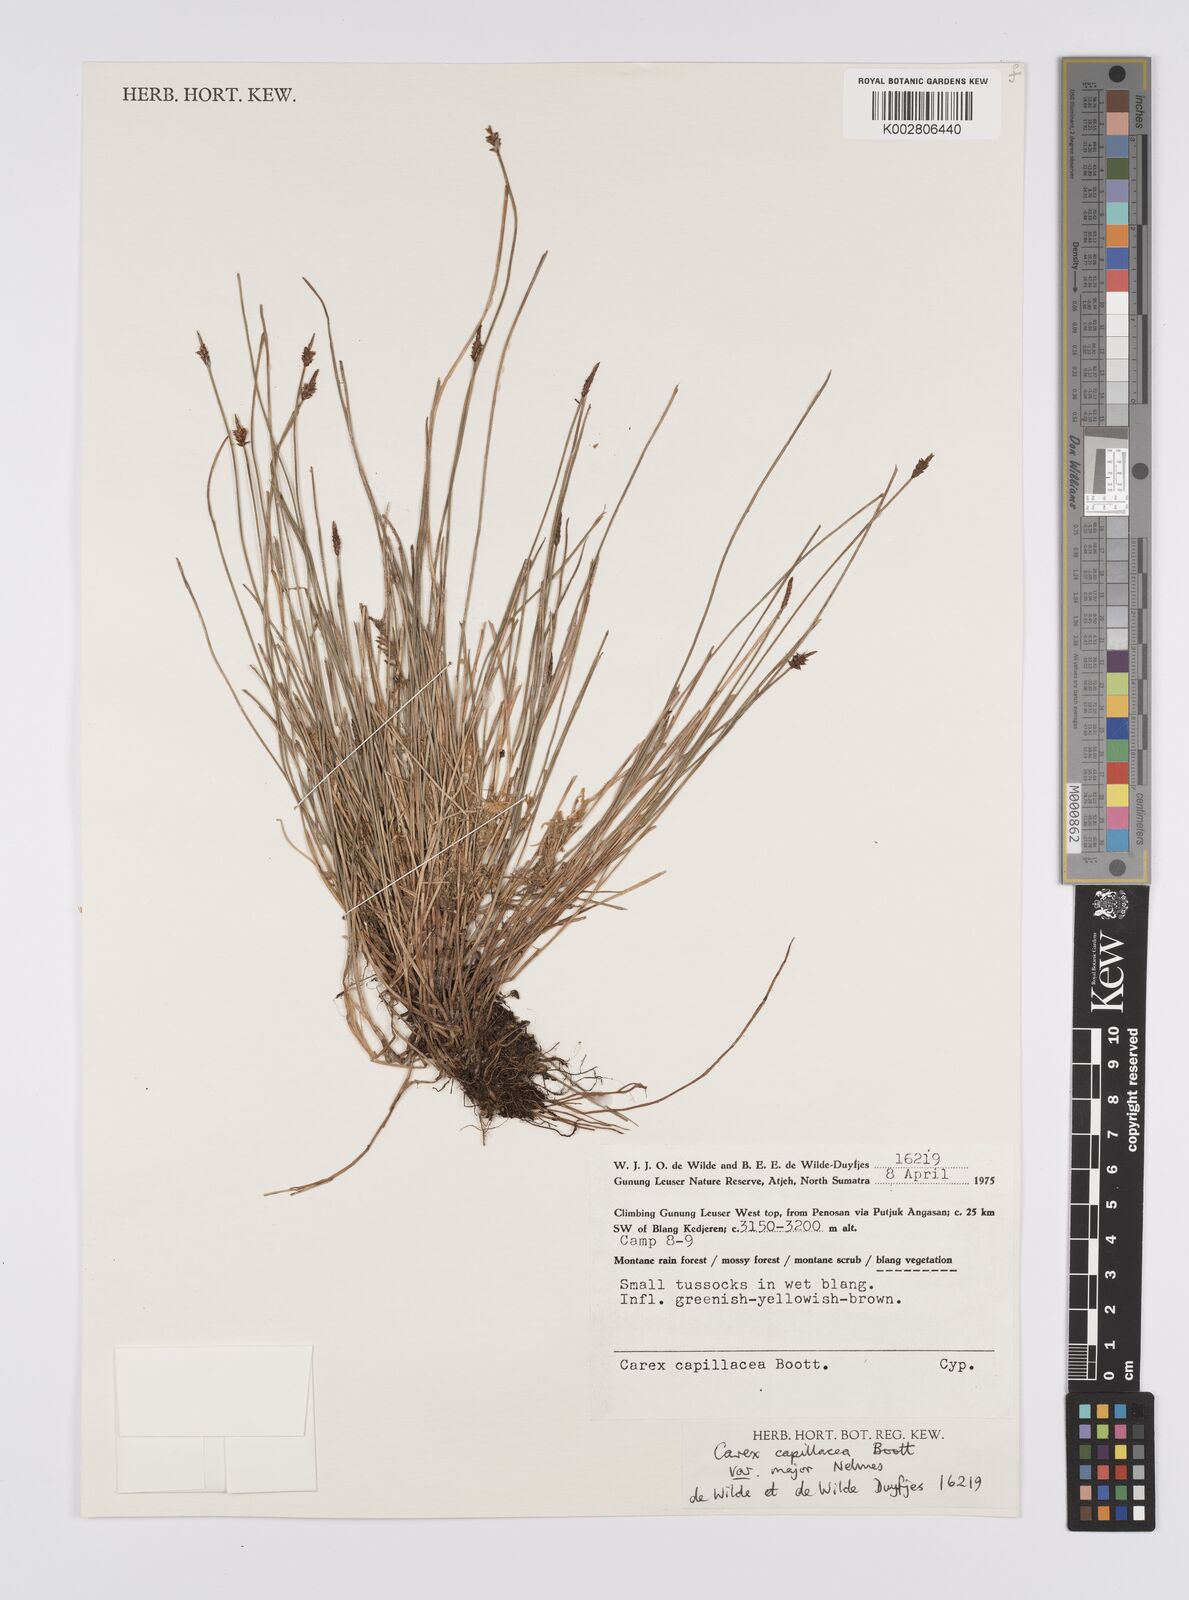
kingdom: Plantae
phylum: Tracheophyta
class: Liliopsida
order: Poales
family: Cyperaceae
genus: Carex
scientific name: Carex capillacea
